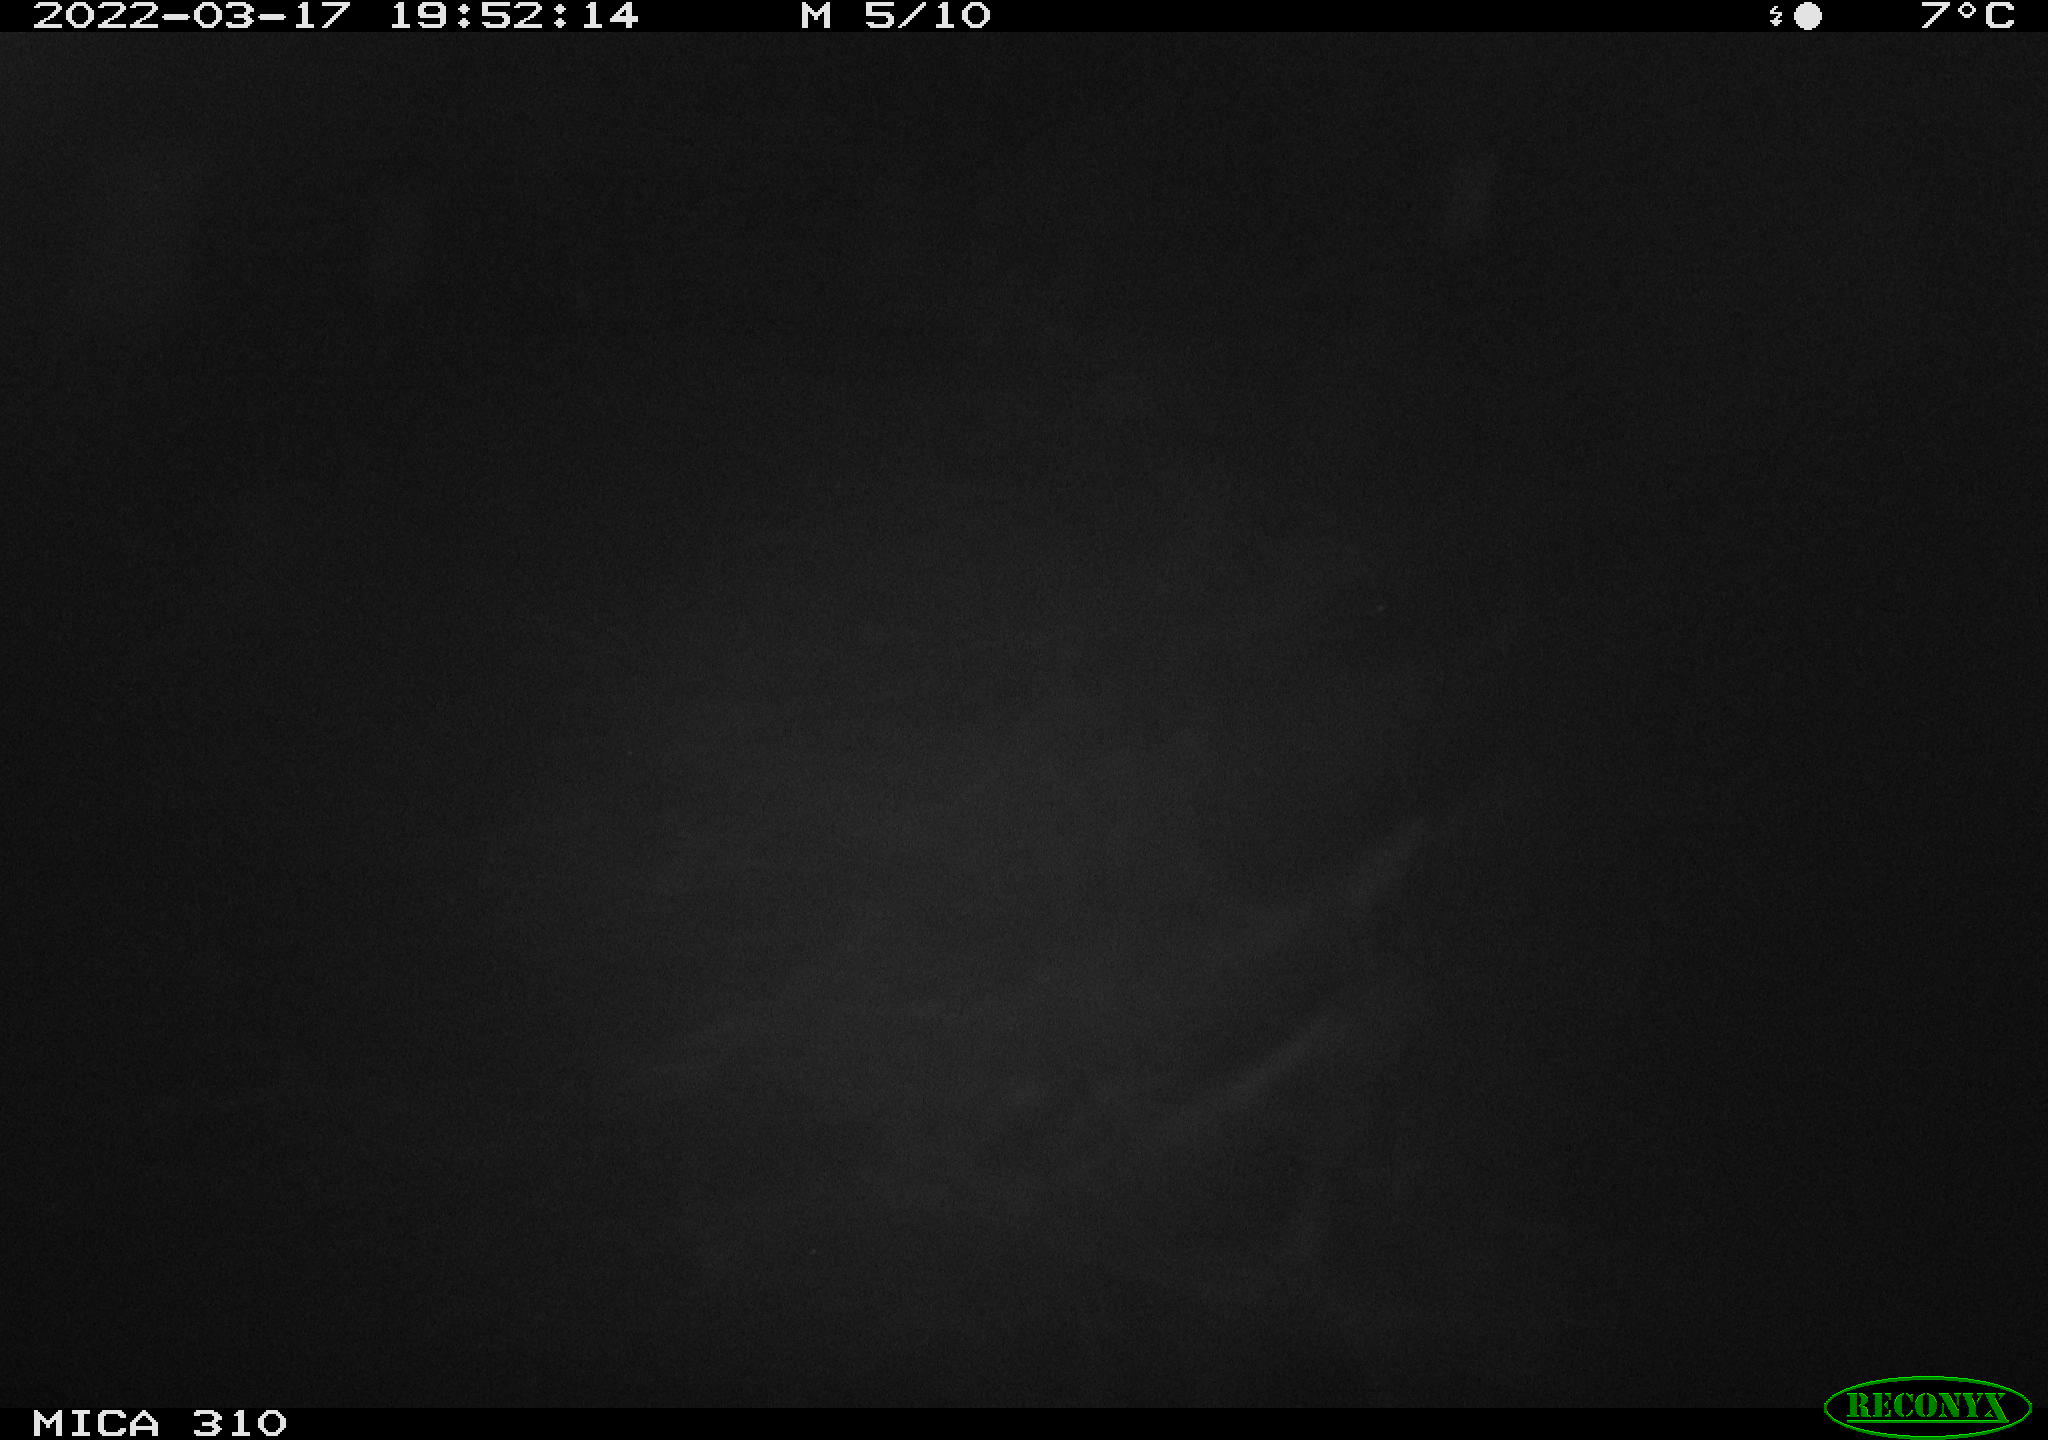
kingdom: Animalia
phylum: Chordata
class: Mammalia
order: Rodentia
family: Cricetidae
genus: Ondatra
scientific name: Ondatra zibethicus
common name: Muskrat
